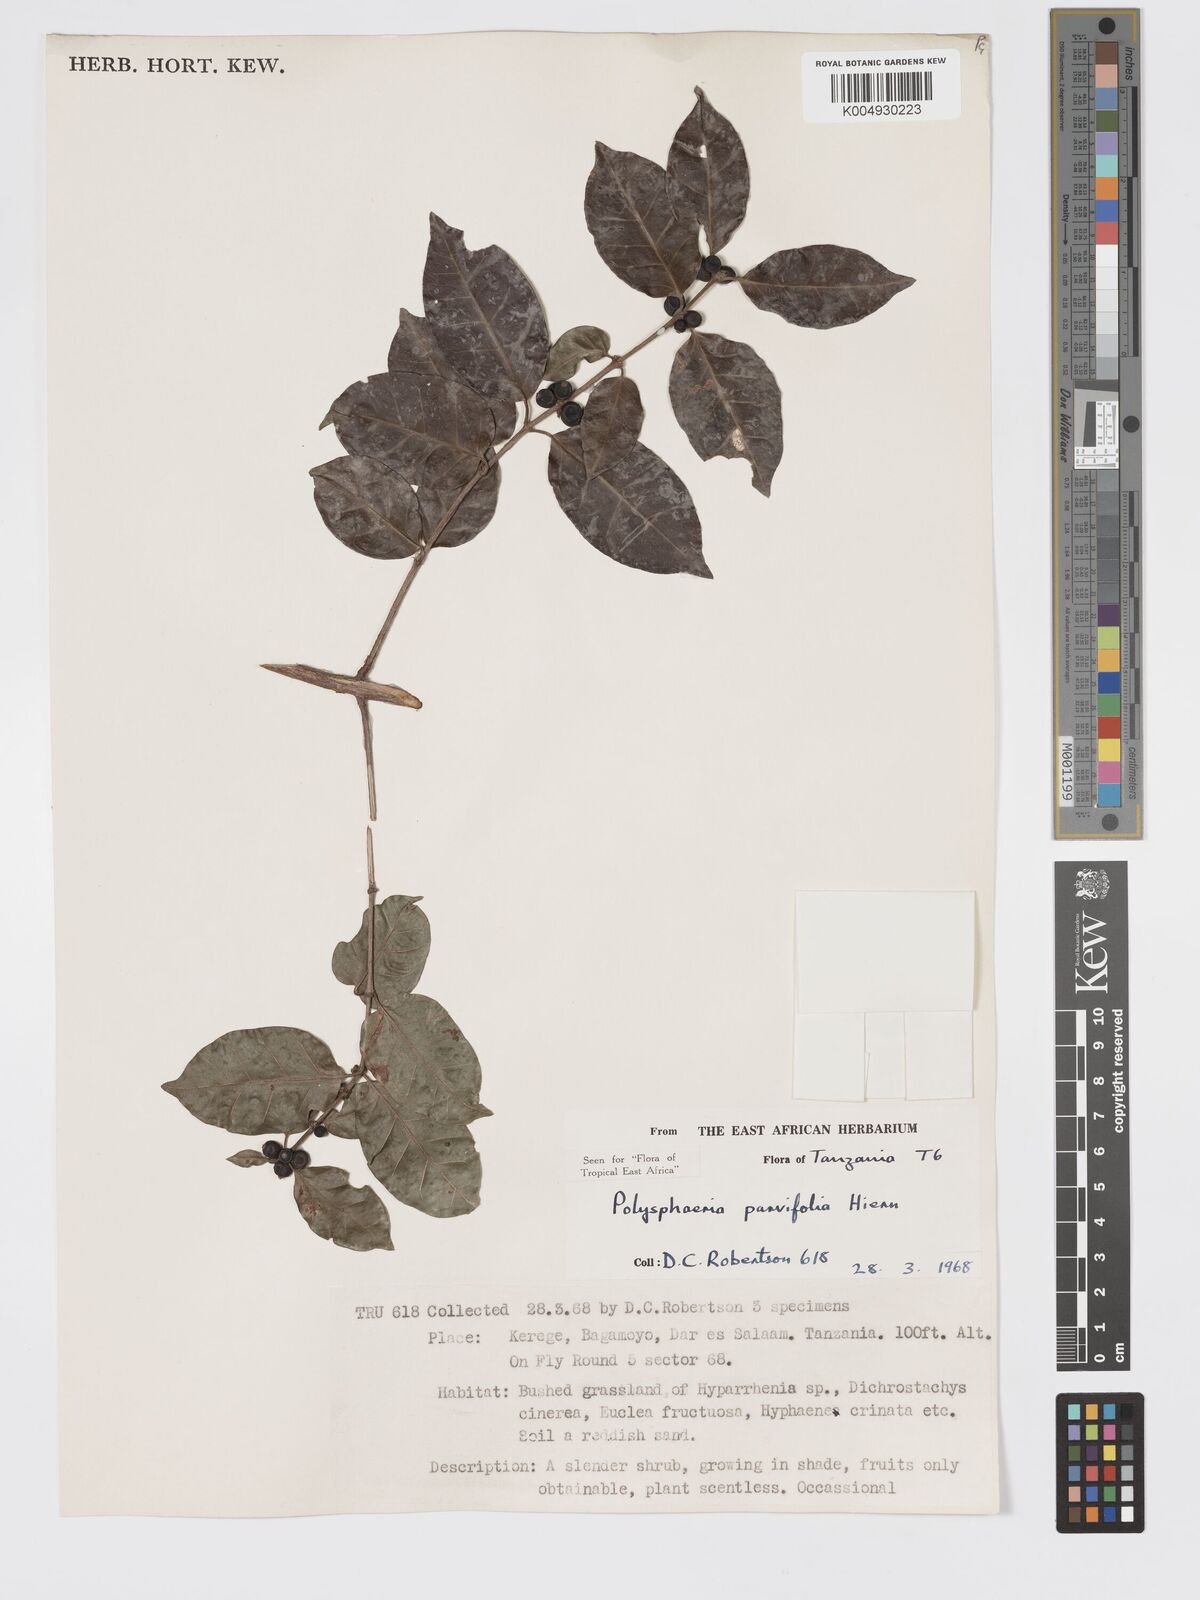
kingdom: Plantae
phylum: Tracheophyta
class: Magnoliopsida
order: Gentianales
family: Rubiaceae
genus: Polysphaeria
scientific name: Polysphaeria parvifolia
